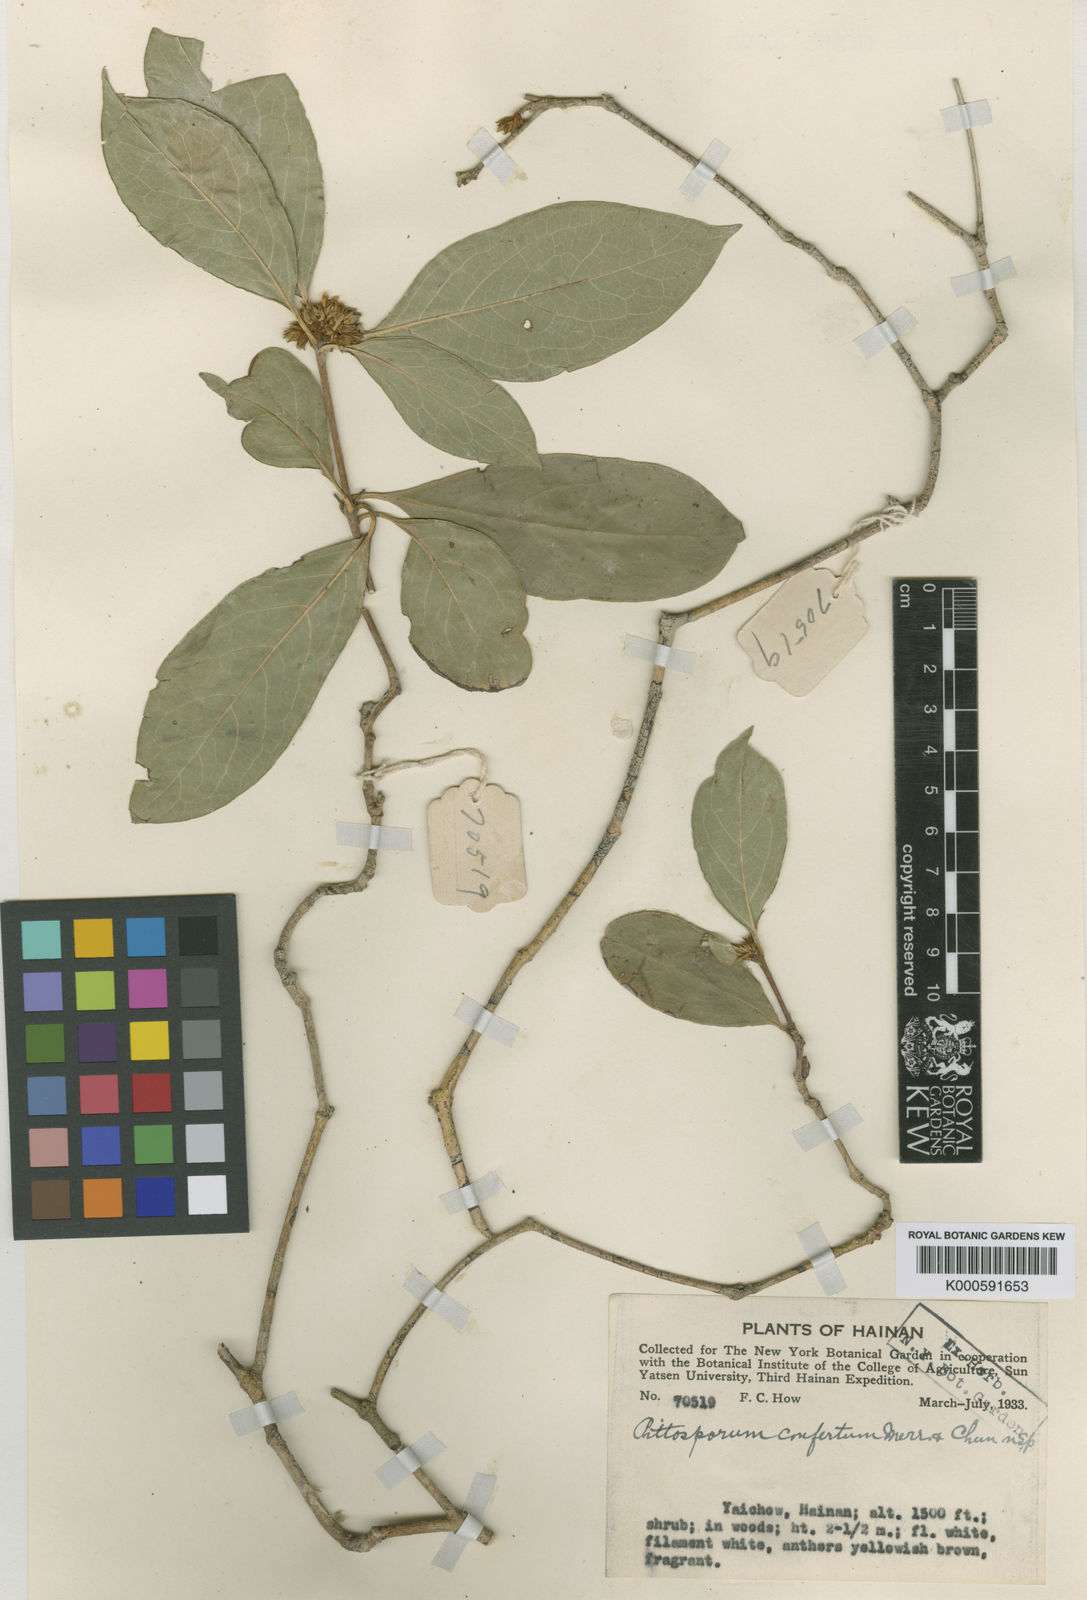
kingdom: Plantae
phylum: Tracheophyta
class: Magnoliopsida
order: Apiales
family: Pittosporaceae
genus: Pittosporum
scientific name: Pittosporum balansae
